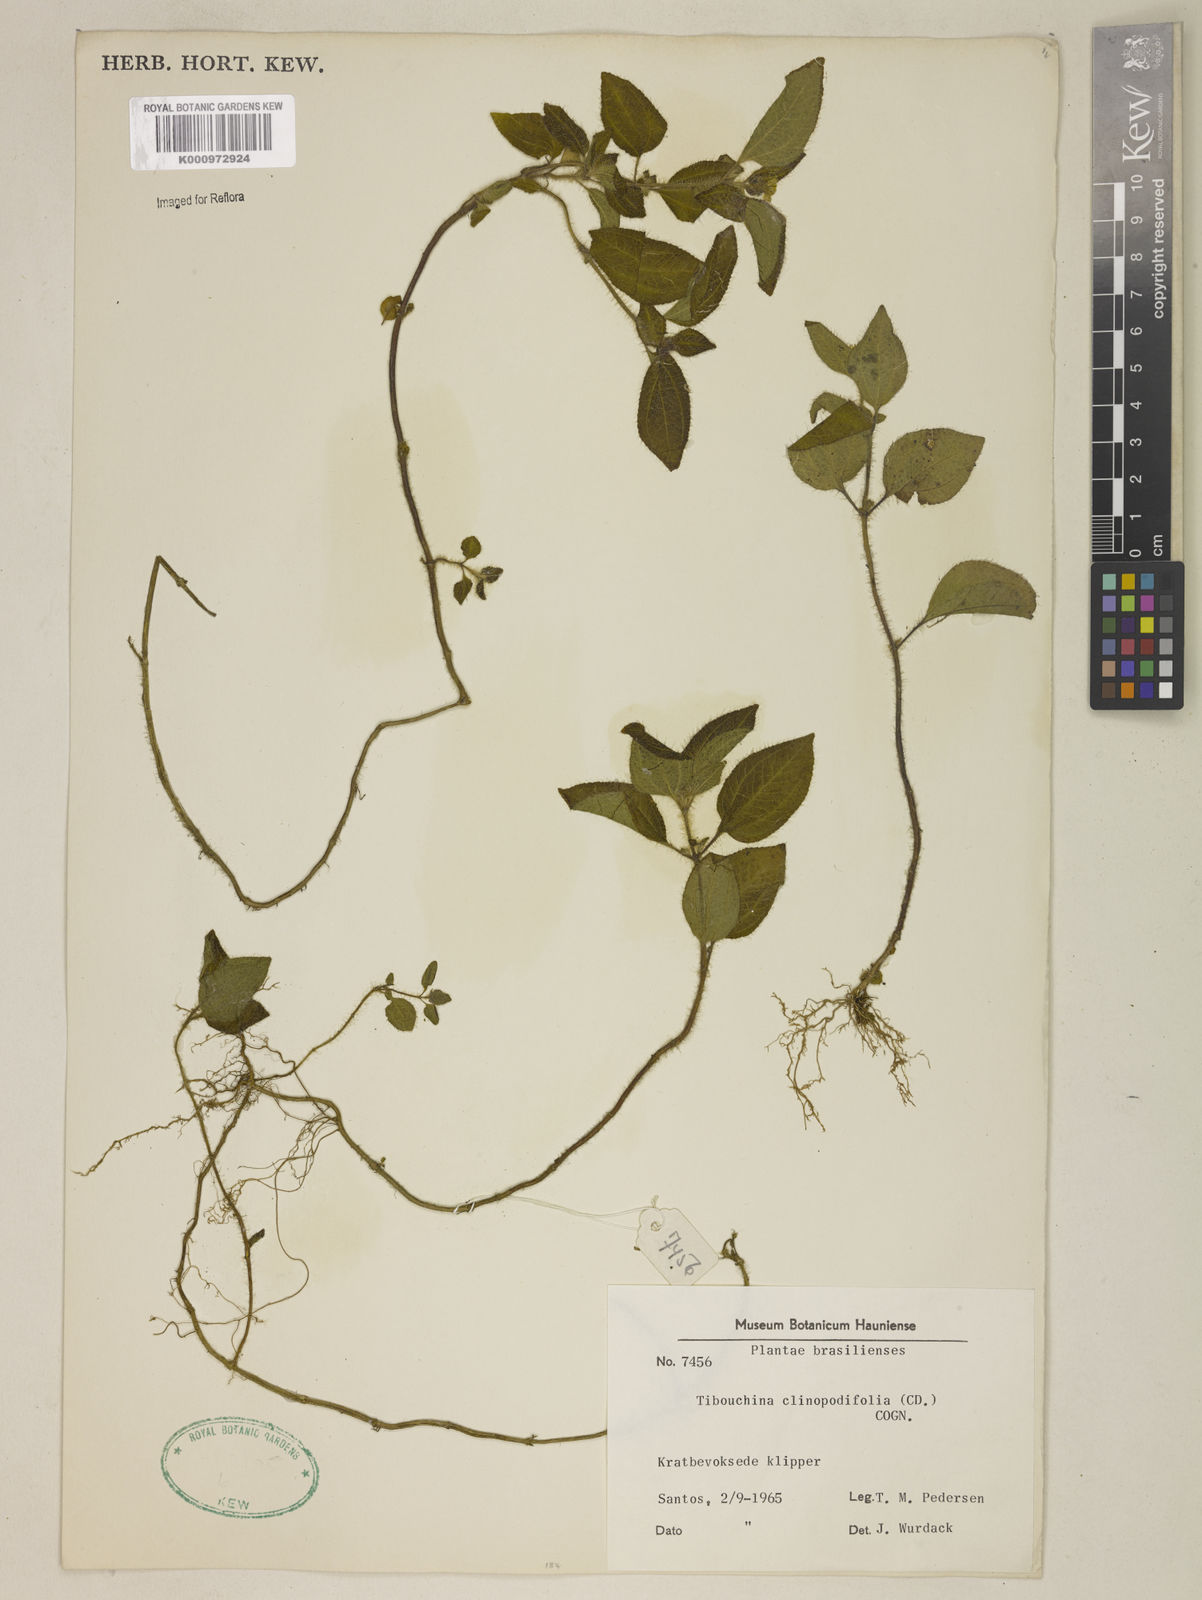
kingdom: Plantae
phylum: Tracheophyta
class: Magnoliopsida
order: Myrtales
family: Melastomataceae
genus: Chaetogastra
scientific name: Chaetogastra clinopodifolia
